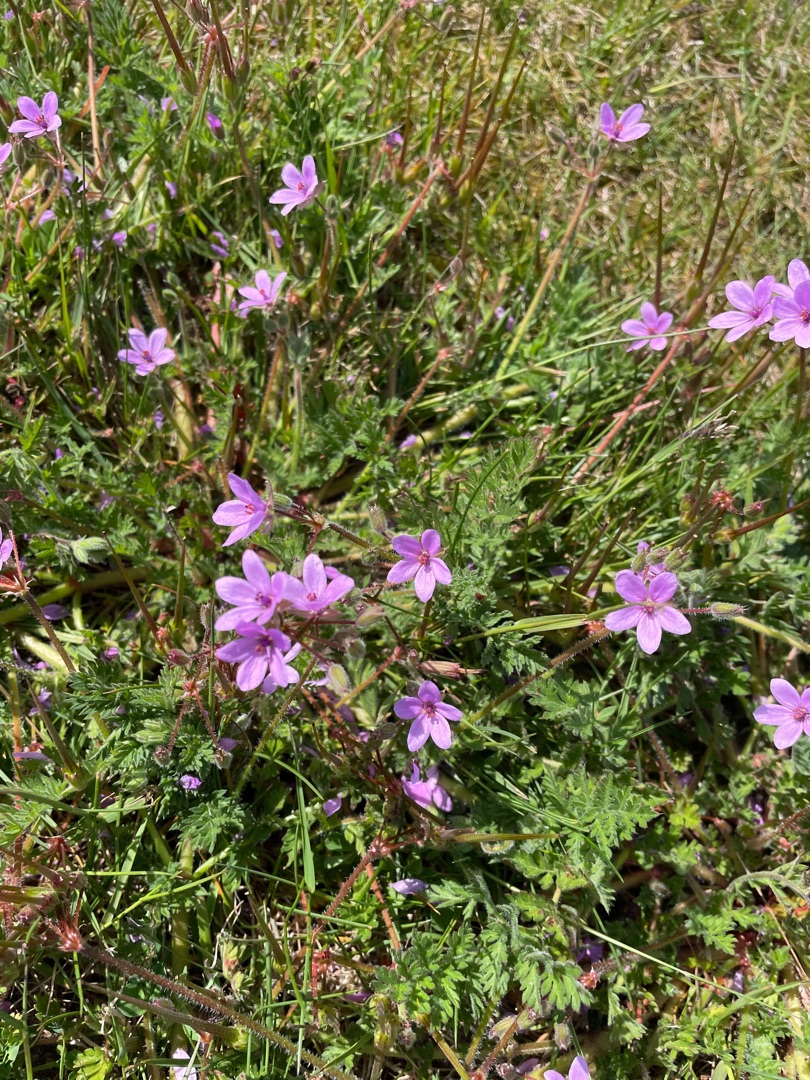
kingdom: Plantae
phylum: Tracheophyta
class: Magnoliopsida
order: Geraniales
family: Geraniaceae
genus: Erodium
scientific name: Erodium cicutarium
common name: Hejrenæb
